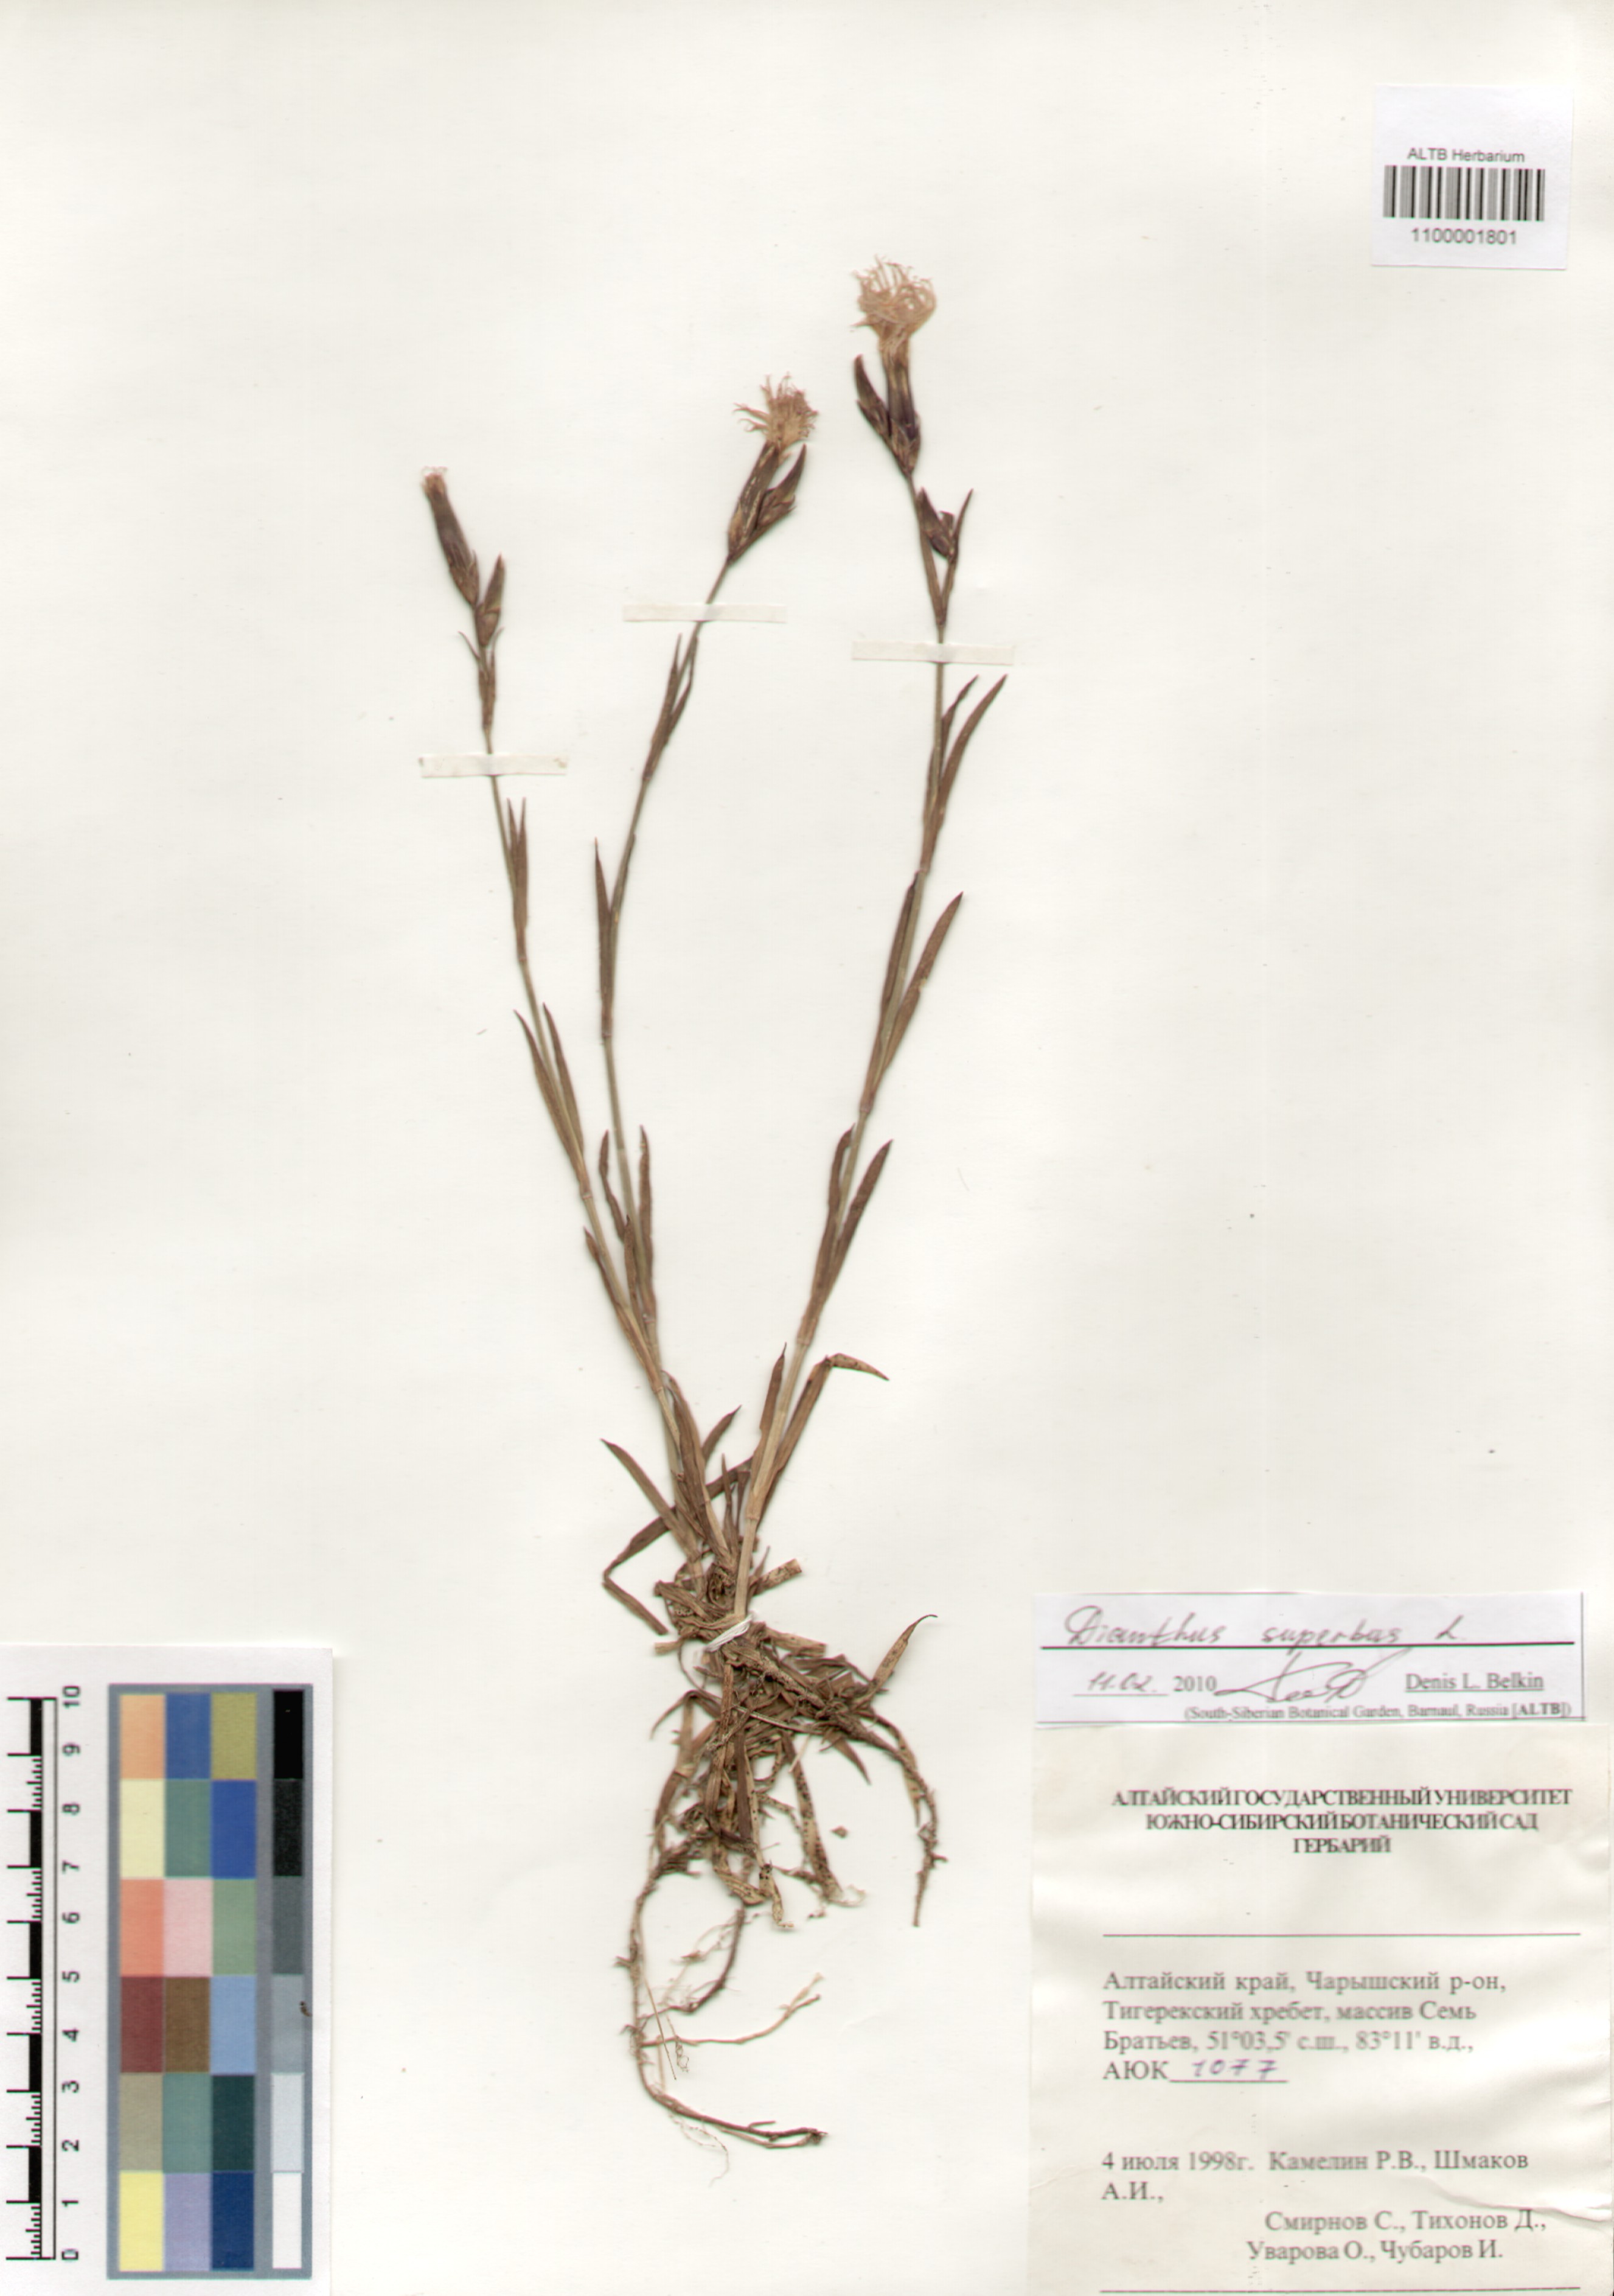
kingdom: Plantae
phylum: Tracheophyta
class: Magnoliopsida
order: Caryophyllales
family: Caryophyllaceae
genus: Dianthus
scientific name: Dianthus superbus
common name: Fringed pink
